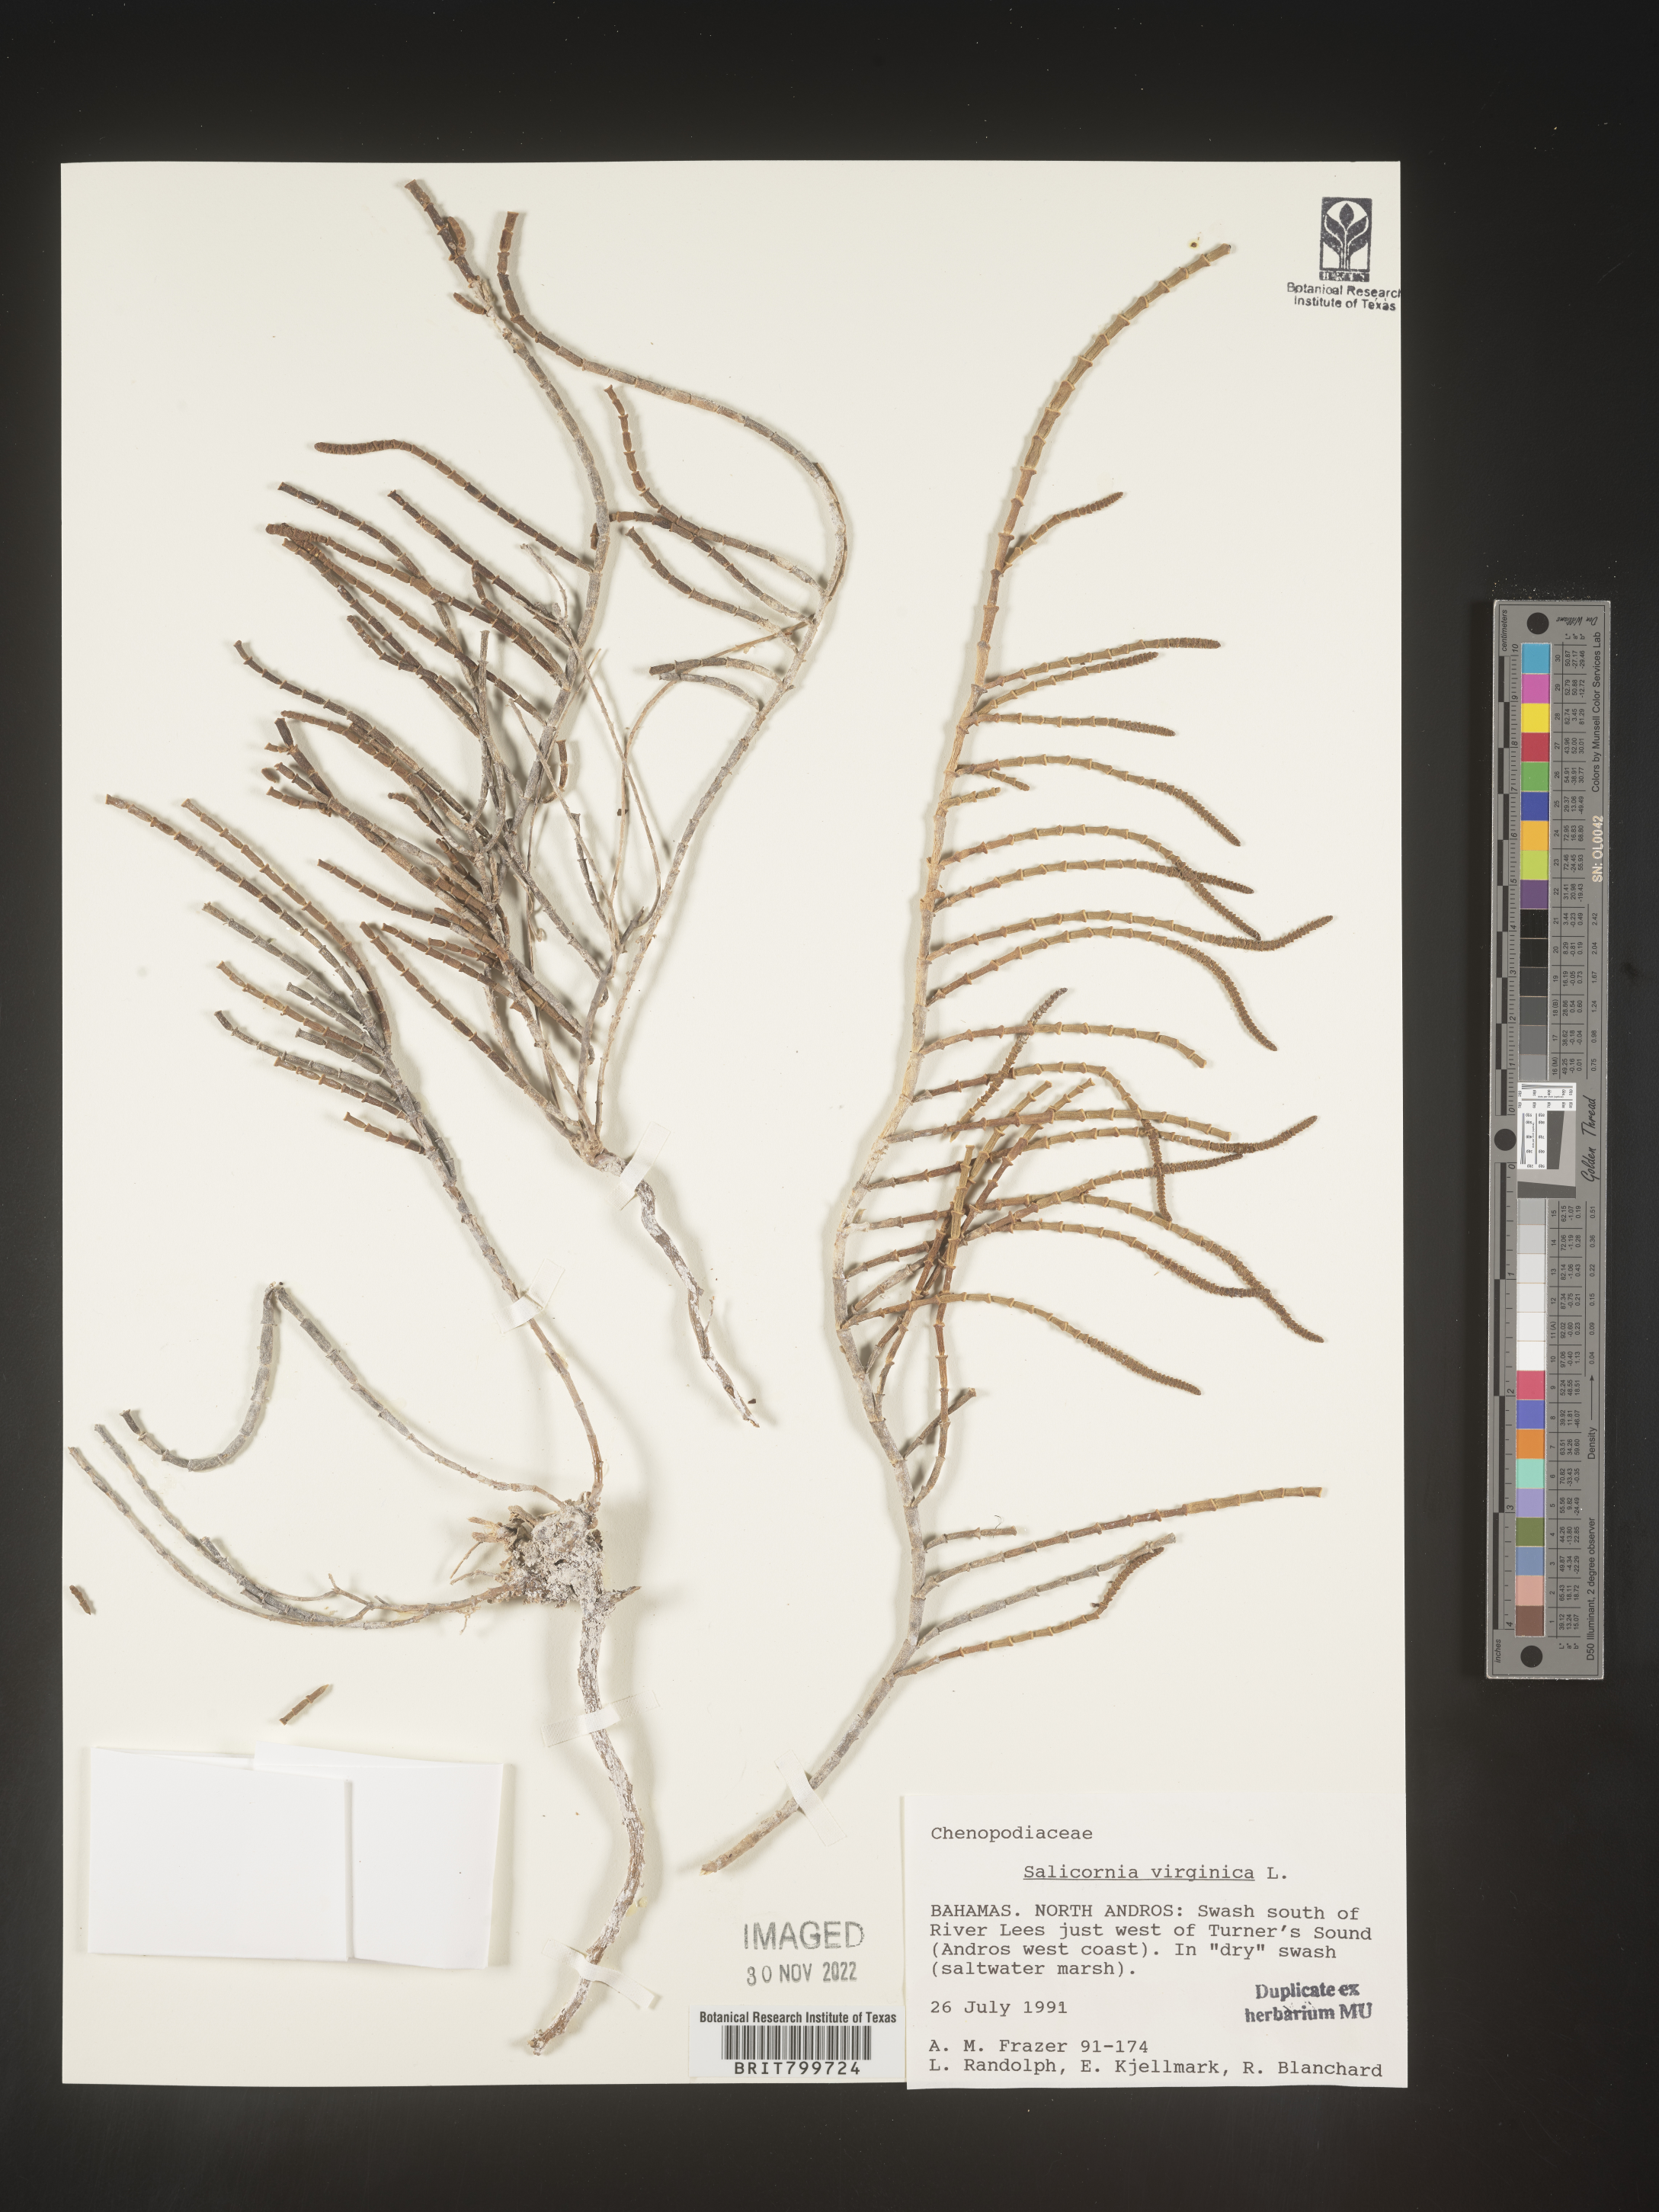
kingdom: Plantae
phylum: Tracheophyta
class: Magnoliopsida
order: Caryophyllales
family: Amaranthaceae
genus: Salicornia
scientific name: Salicornia
